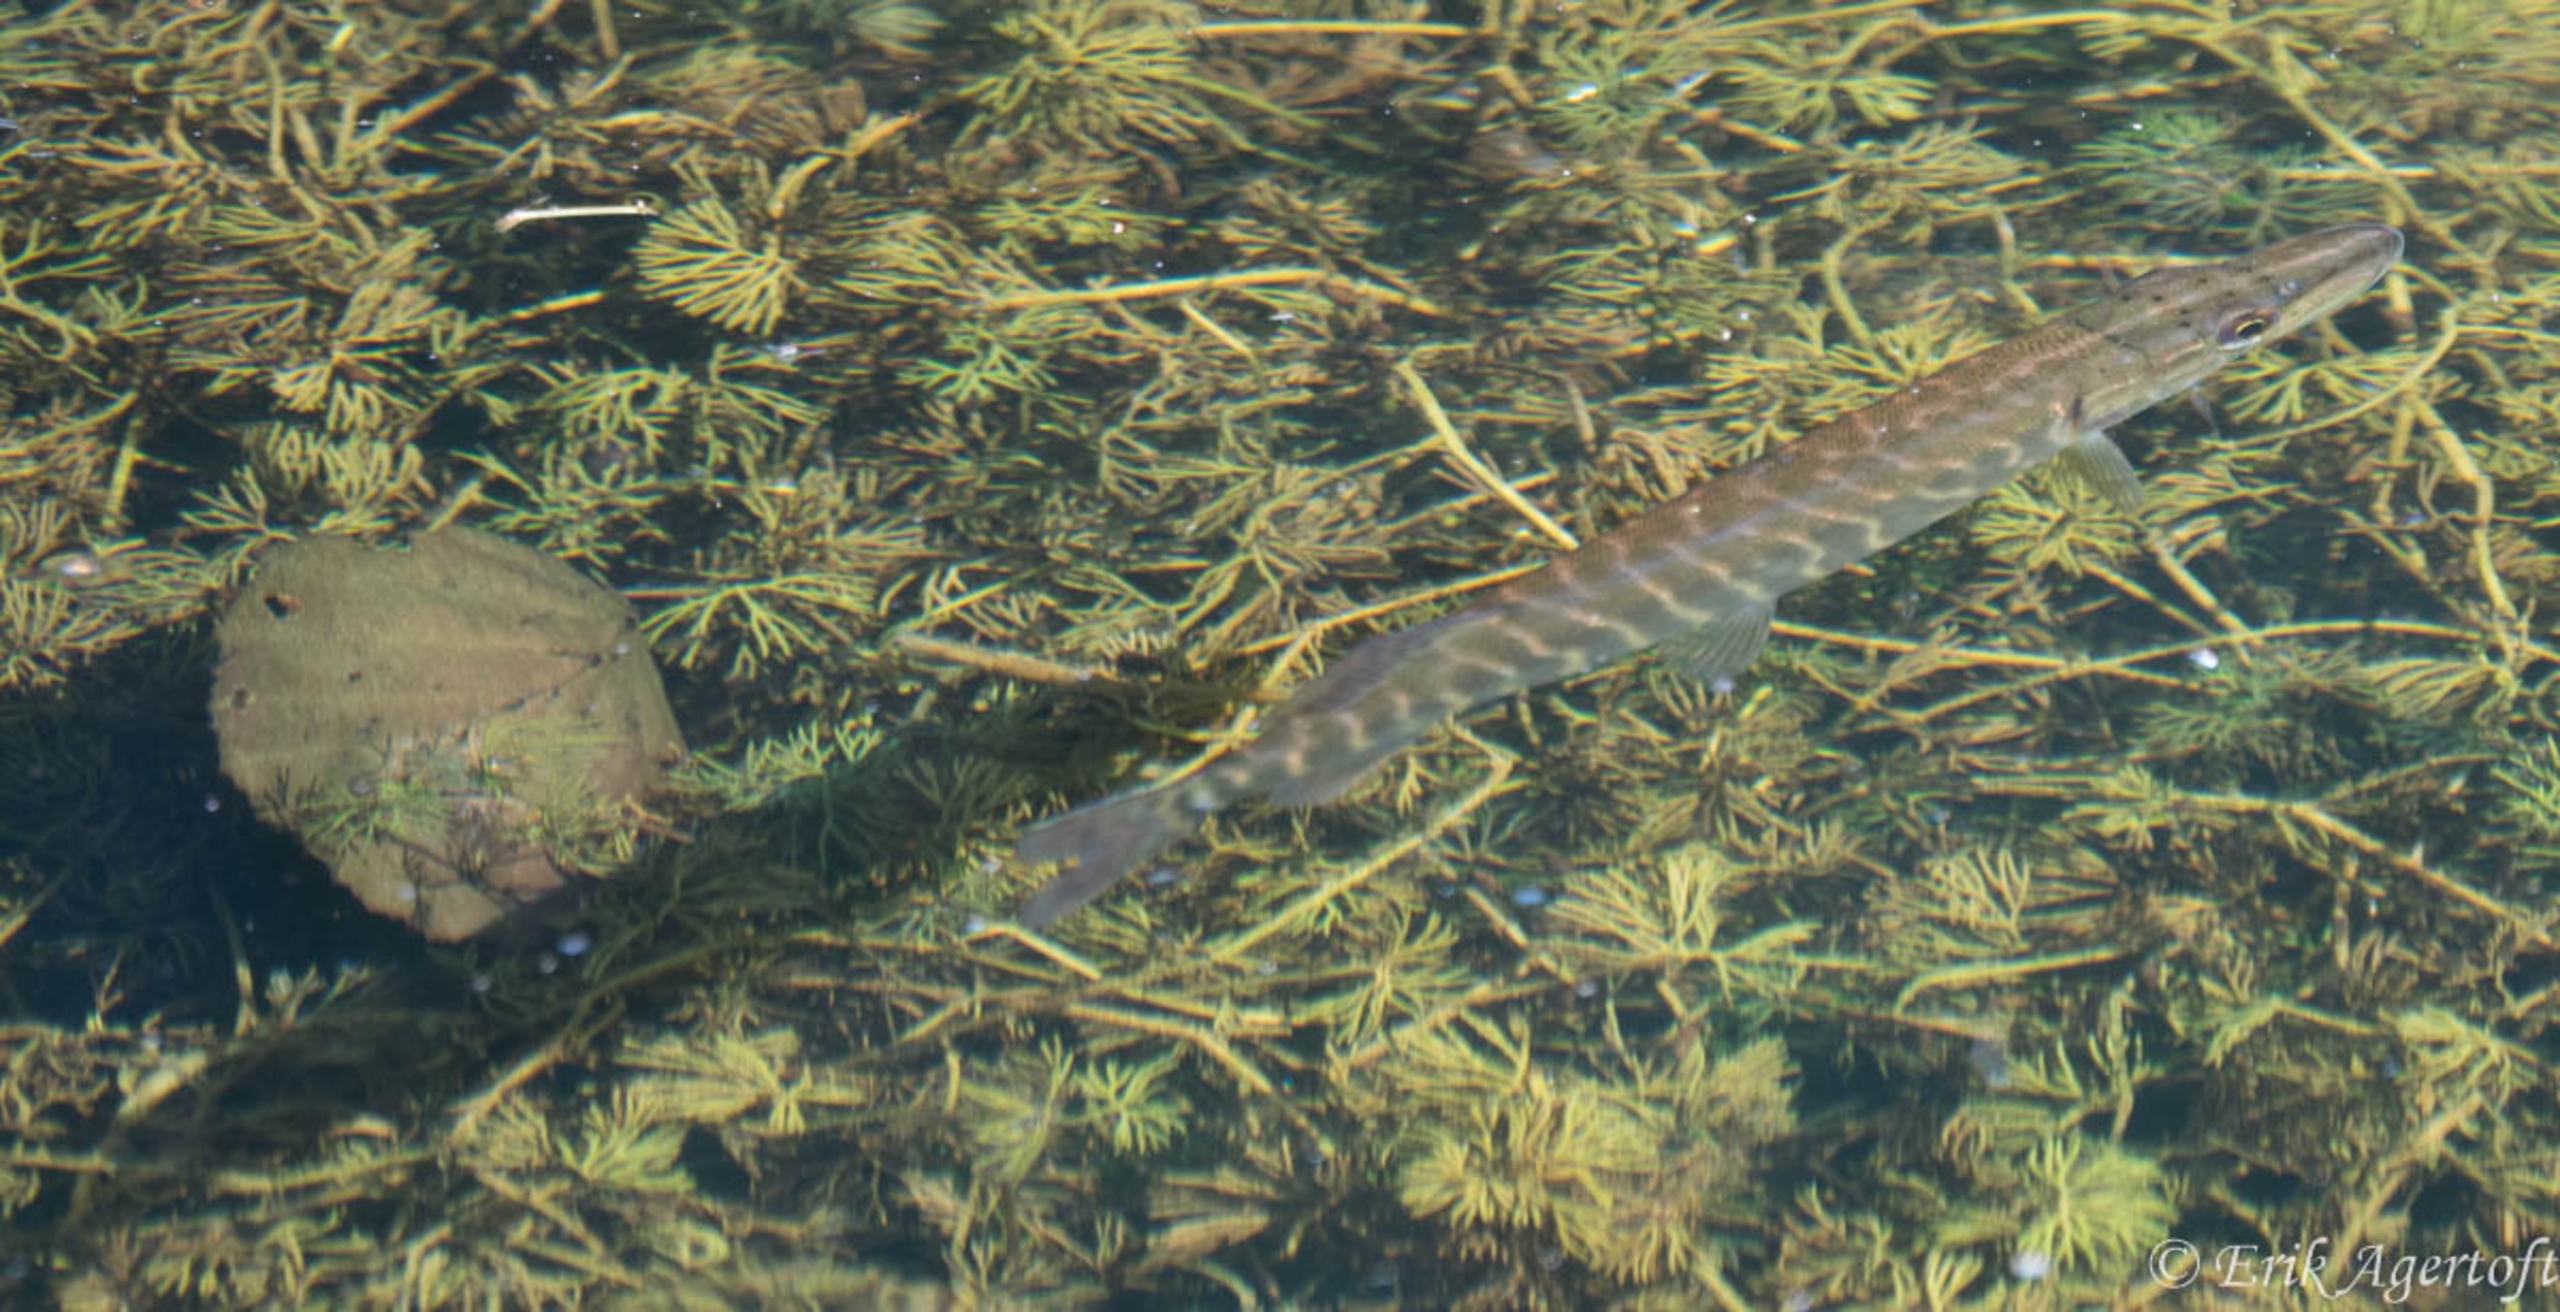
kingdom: Animalia
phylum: Chordata
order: Esociformes
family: Esocidae
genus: Esox
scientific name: Esox lucius
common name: Gedde
